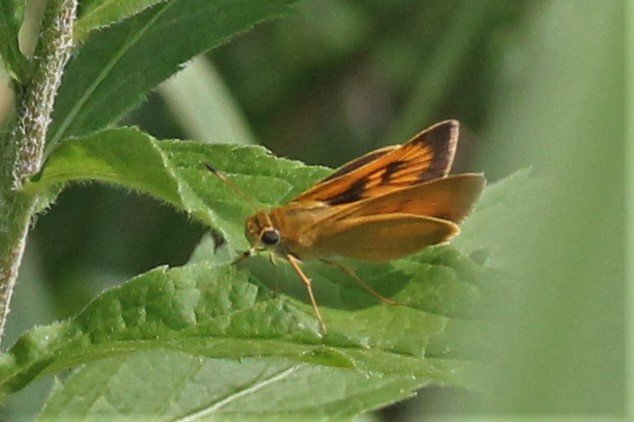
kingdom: Animalia
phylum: Arthropoda
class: Insecta
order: Lepidoptera
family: Hesperiidae
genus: Atrytone
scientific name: Atrytone delaware
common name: Delaware Skipper
